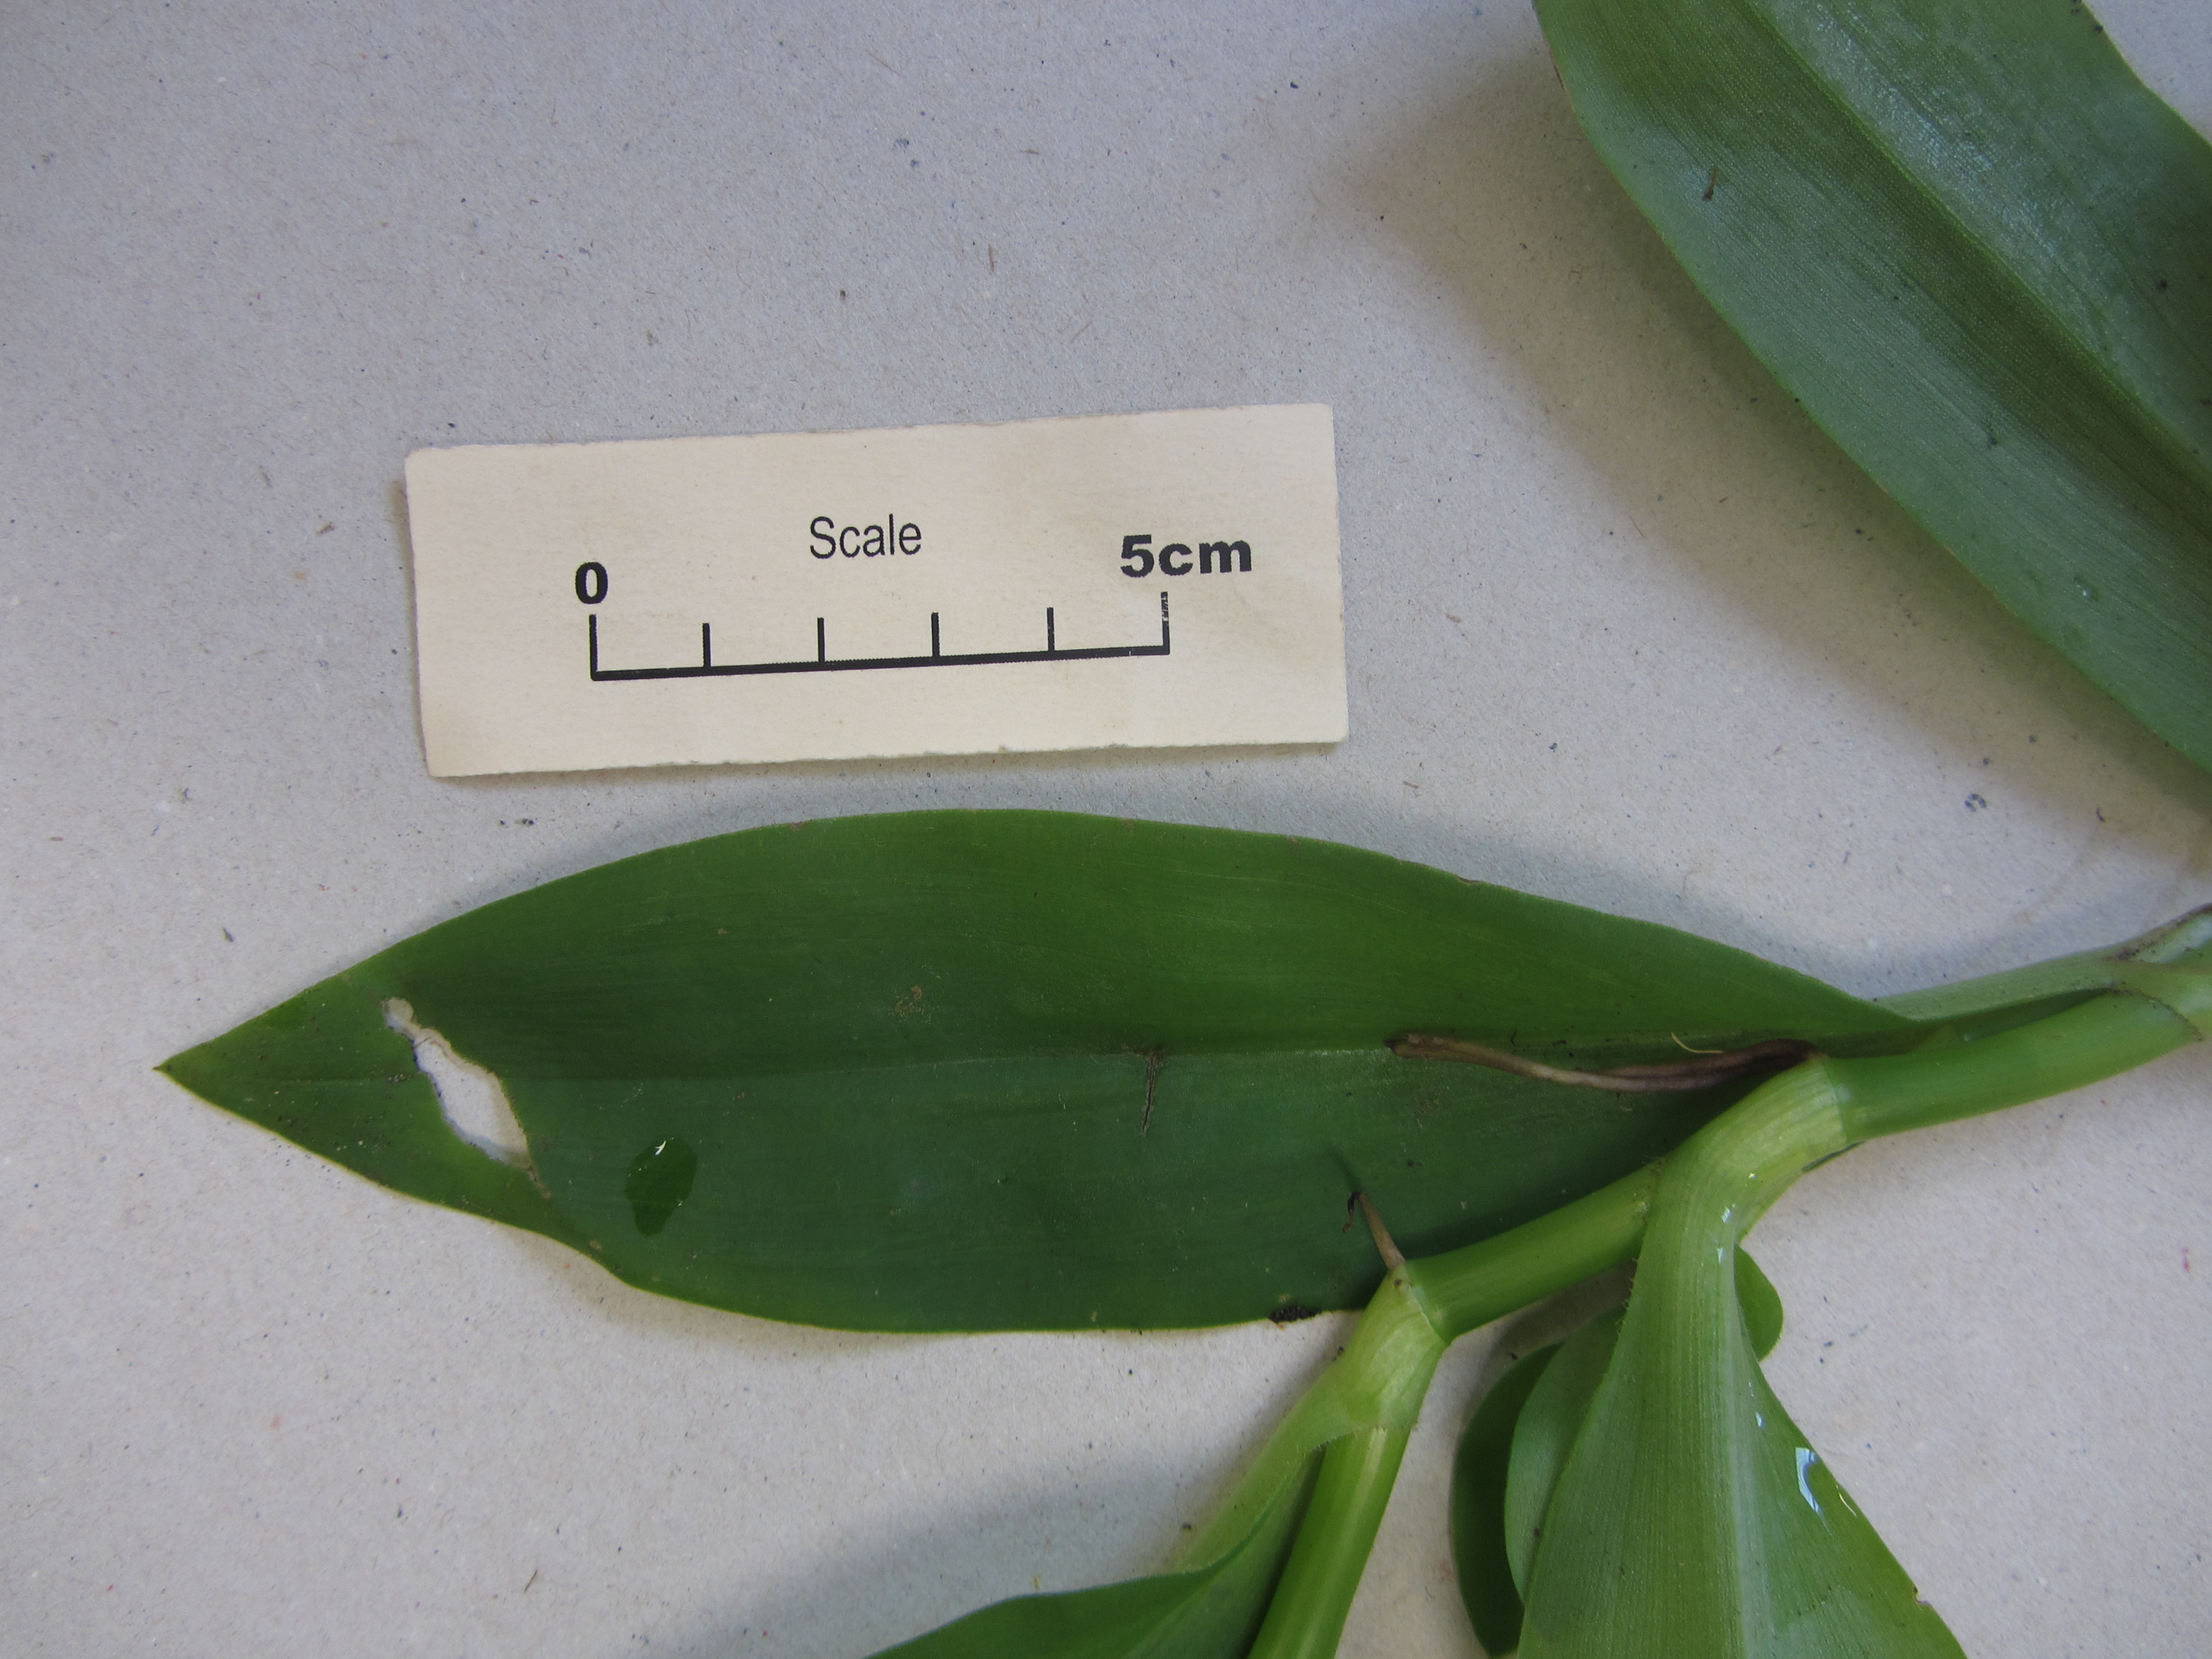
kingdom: Plantae
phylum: Tracheophyta
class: Liliopsida
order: Commelinales
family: Commelinaceae
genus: Tradescantia
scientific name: Tradescantia umbraculifera
